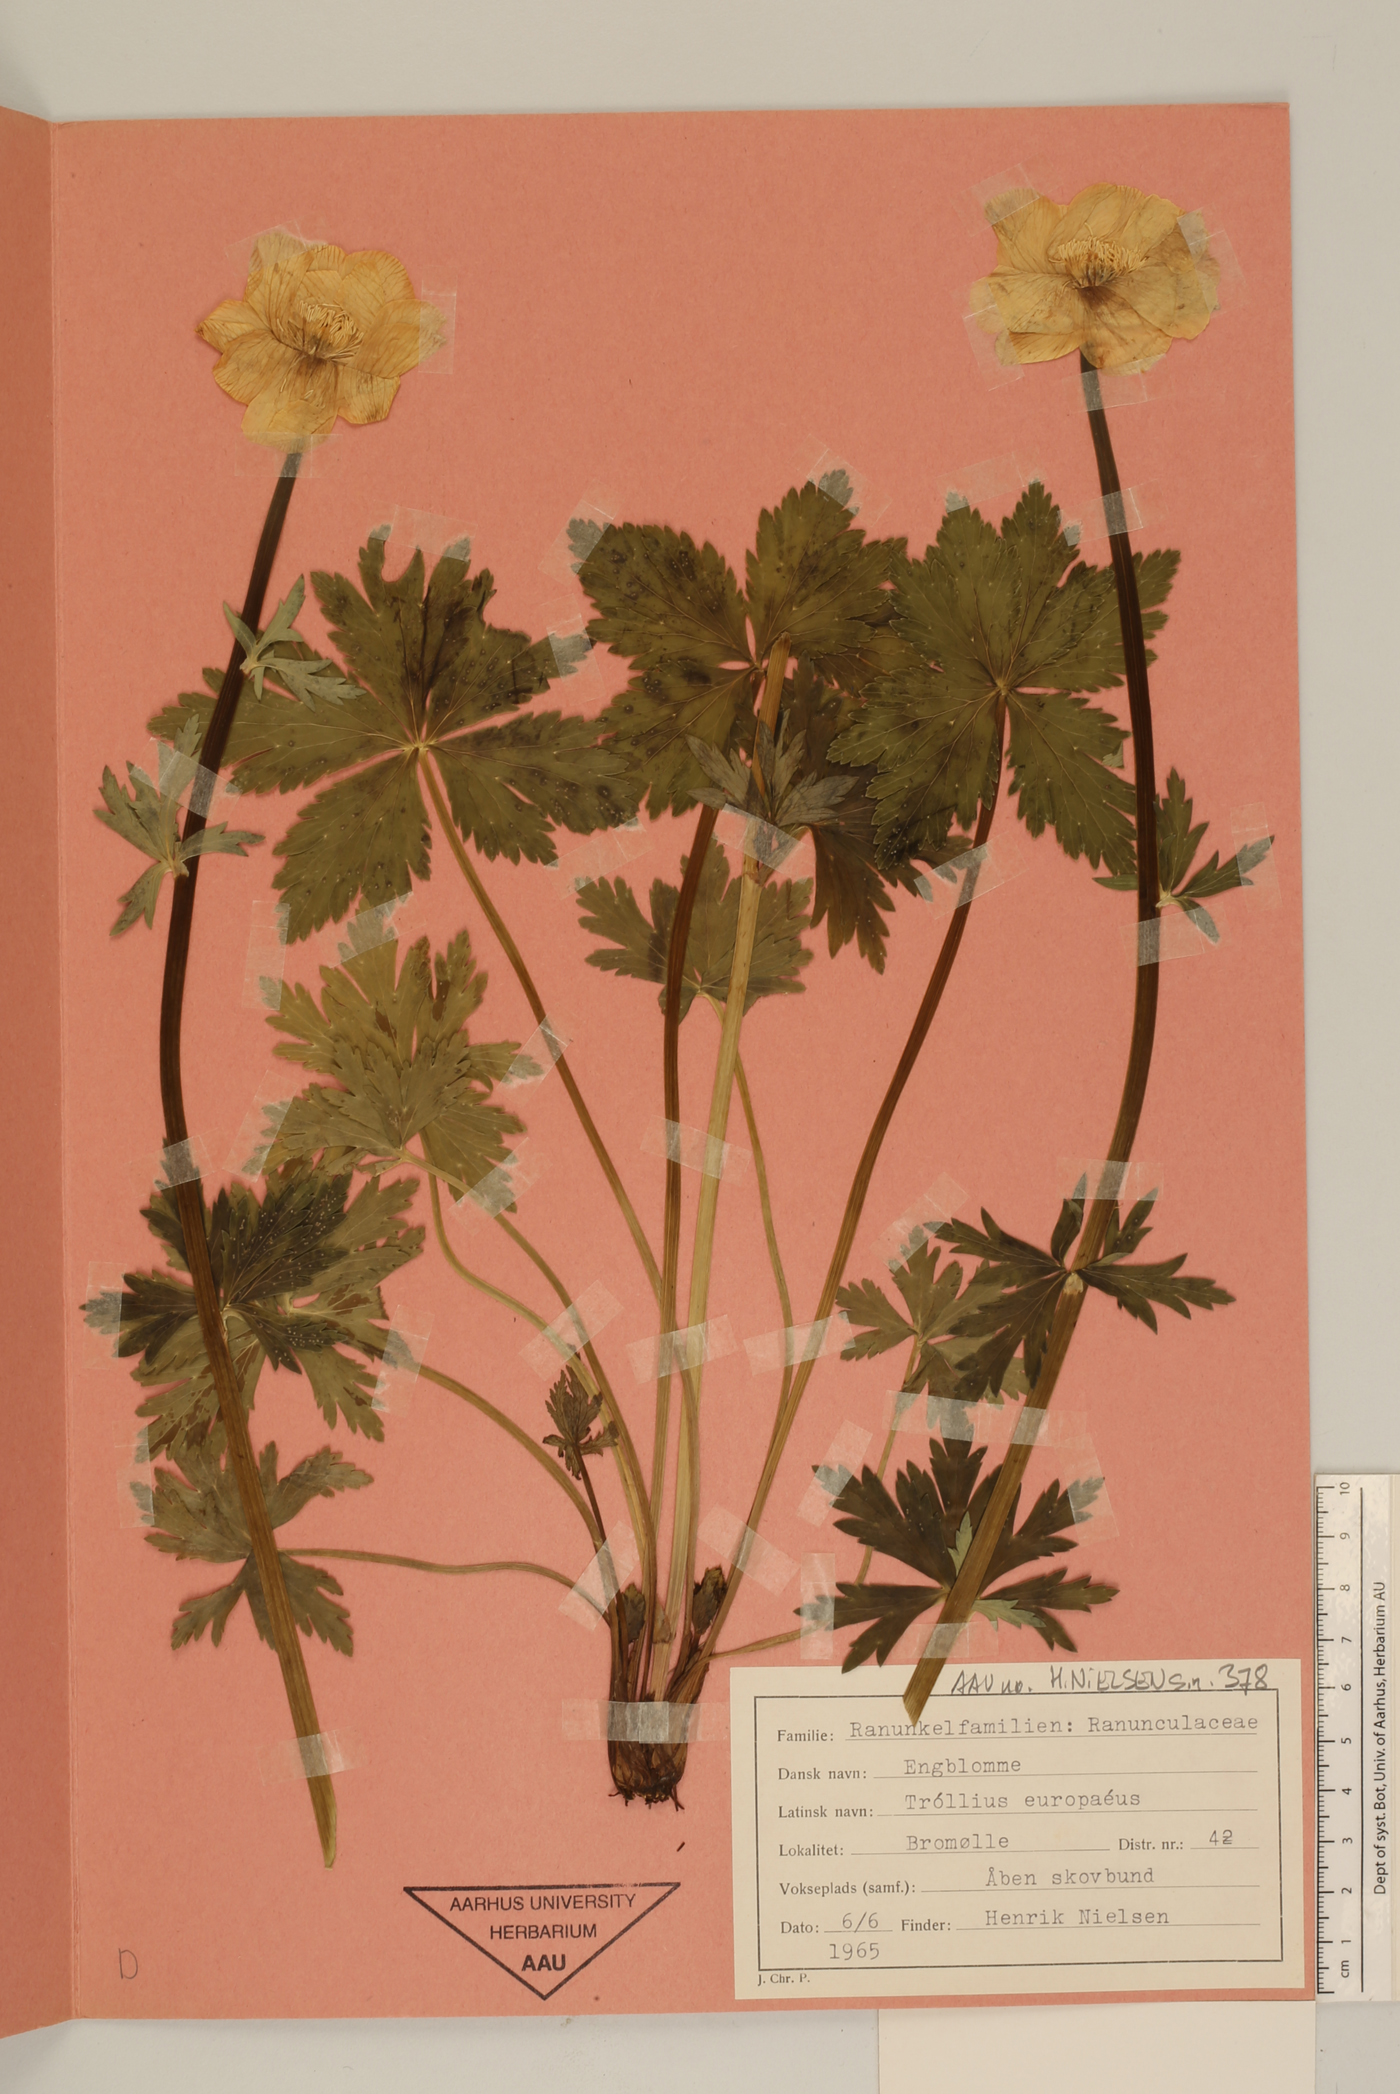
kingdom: Plantae
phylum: Tracheophyta
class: Magnoliopsida
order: Ranunculales
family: Ranunculaceae
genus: Trollius
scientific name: Trollius europaeus
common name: European globeflower
